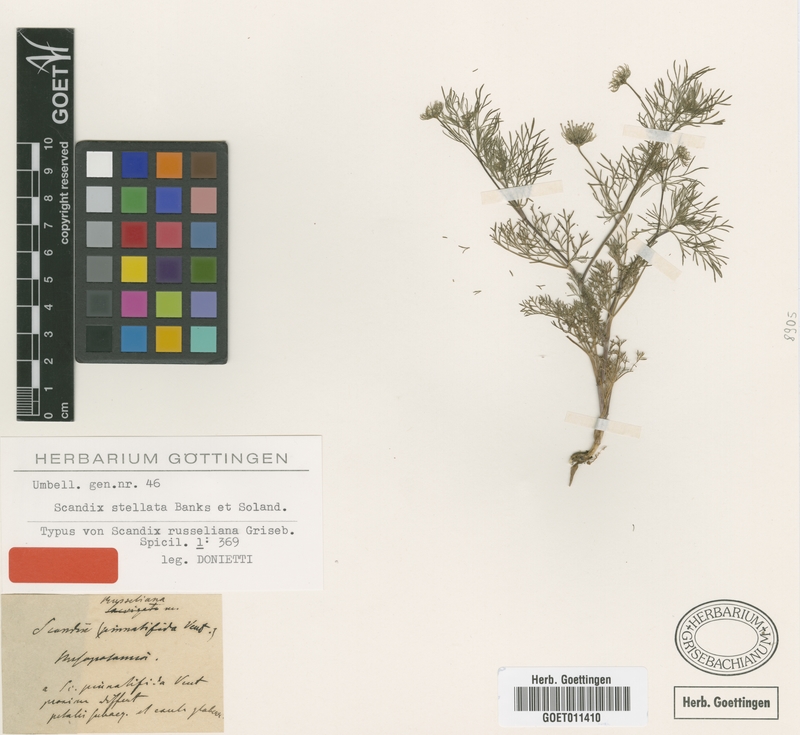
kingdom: Plantae
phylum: Tracheophyta
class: Magnoliopsida
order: Apiales
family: Apiaceae
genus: Scandix
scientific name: Scandix stellata
